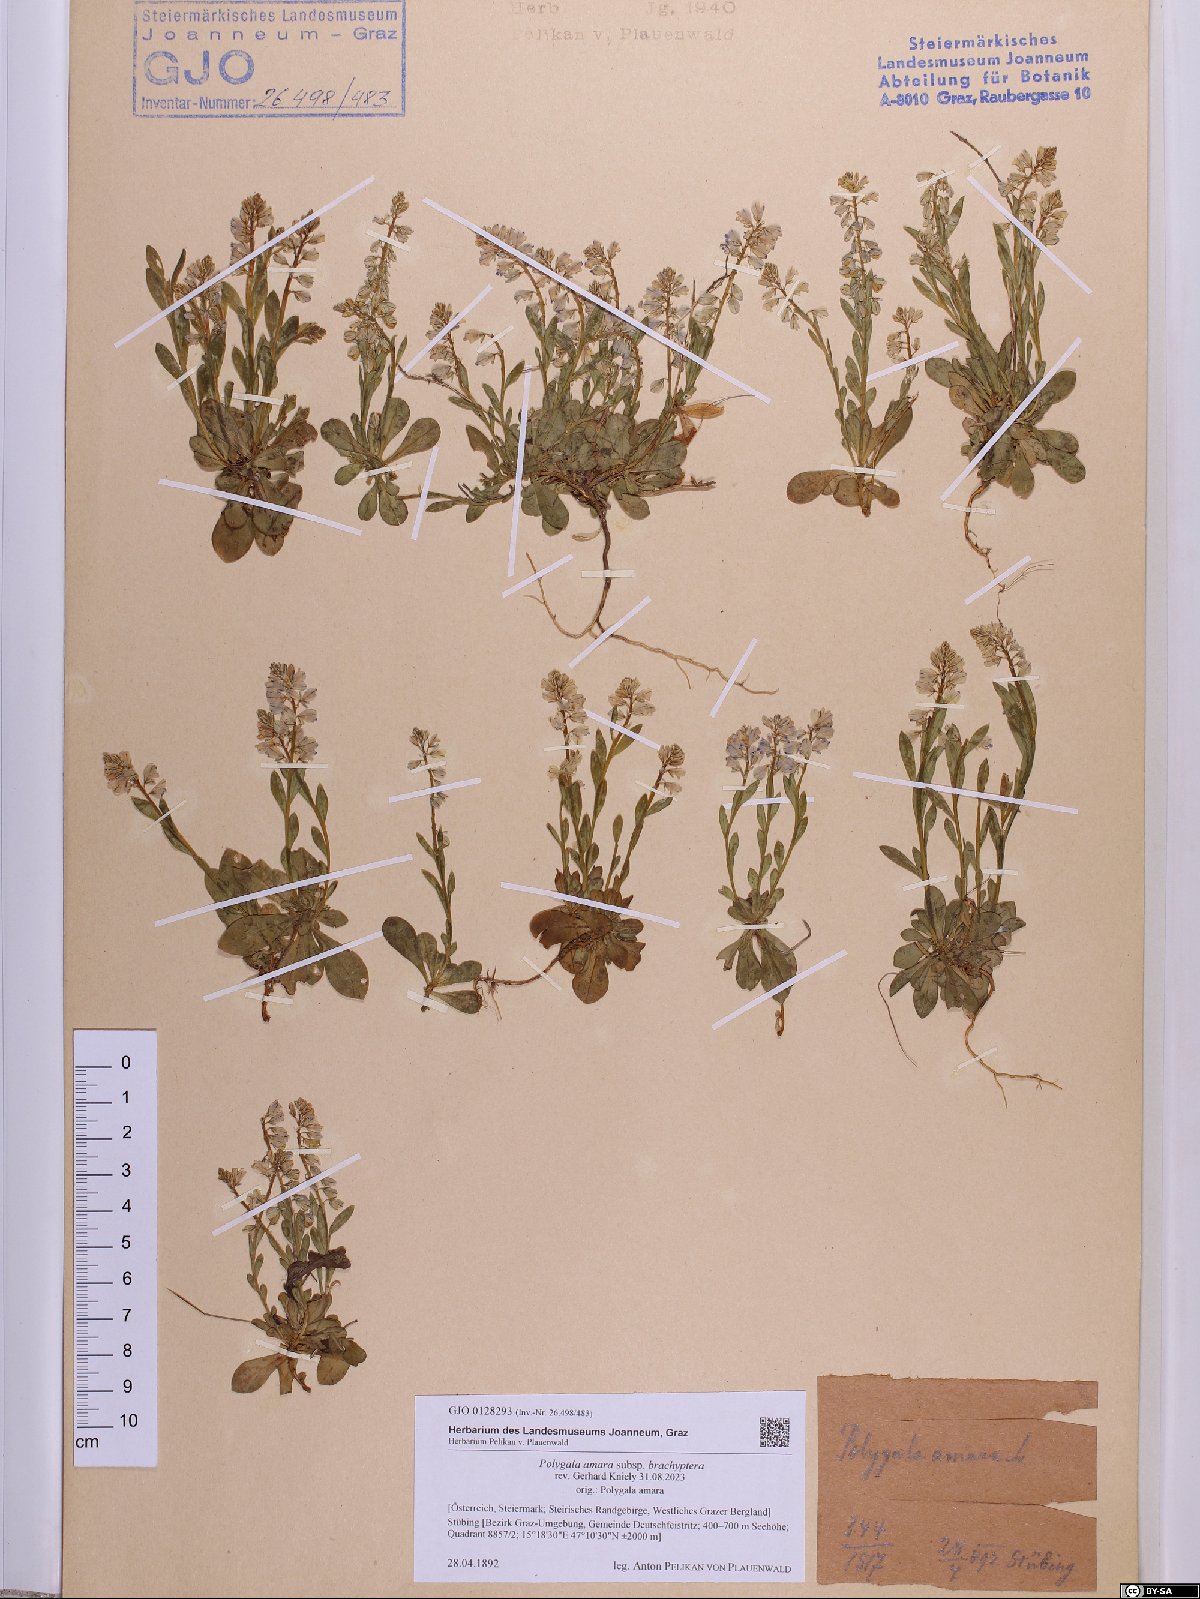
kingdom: Plantae
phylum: Tracheophyta
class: Magnoliopsida
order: Fabales
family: Polygalaceae
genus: Polygala
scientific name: Polygala amara
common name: Milkwort
